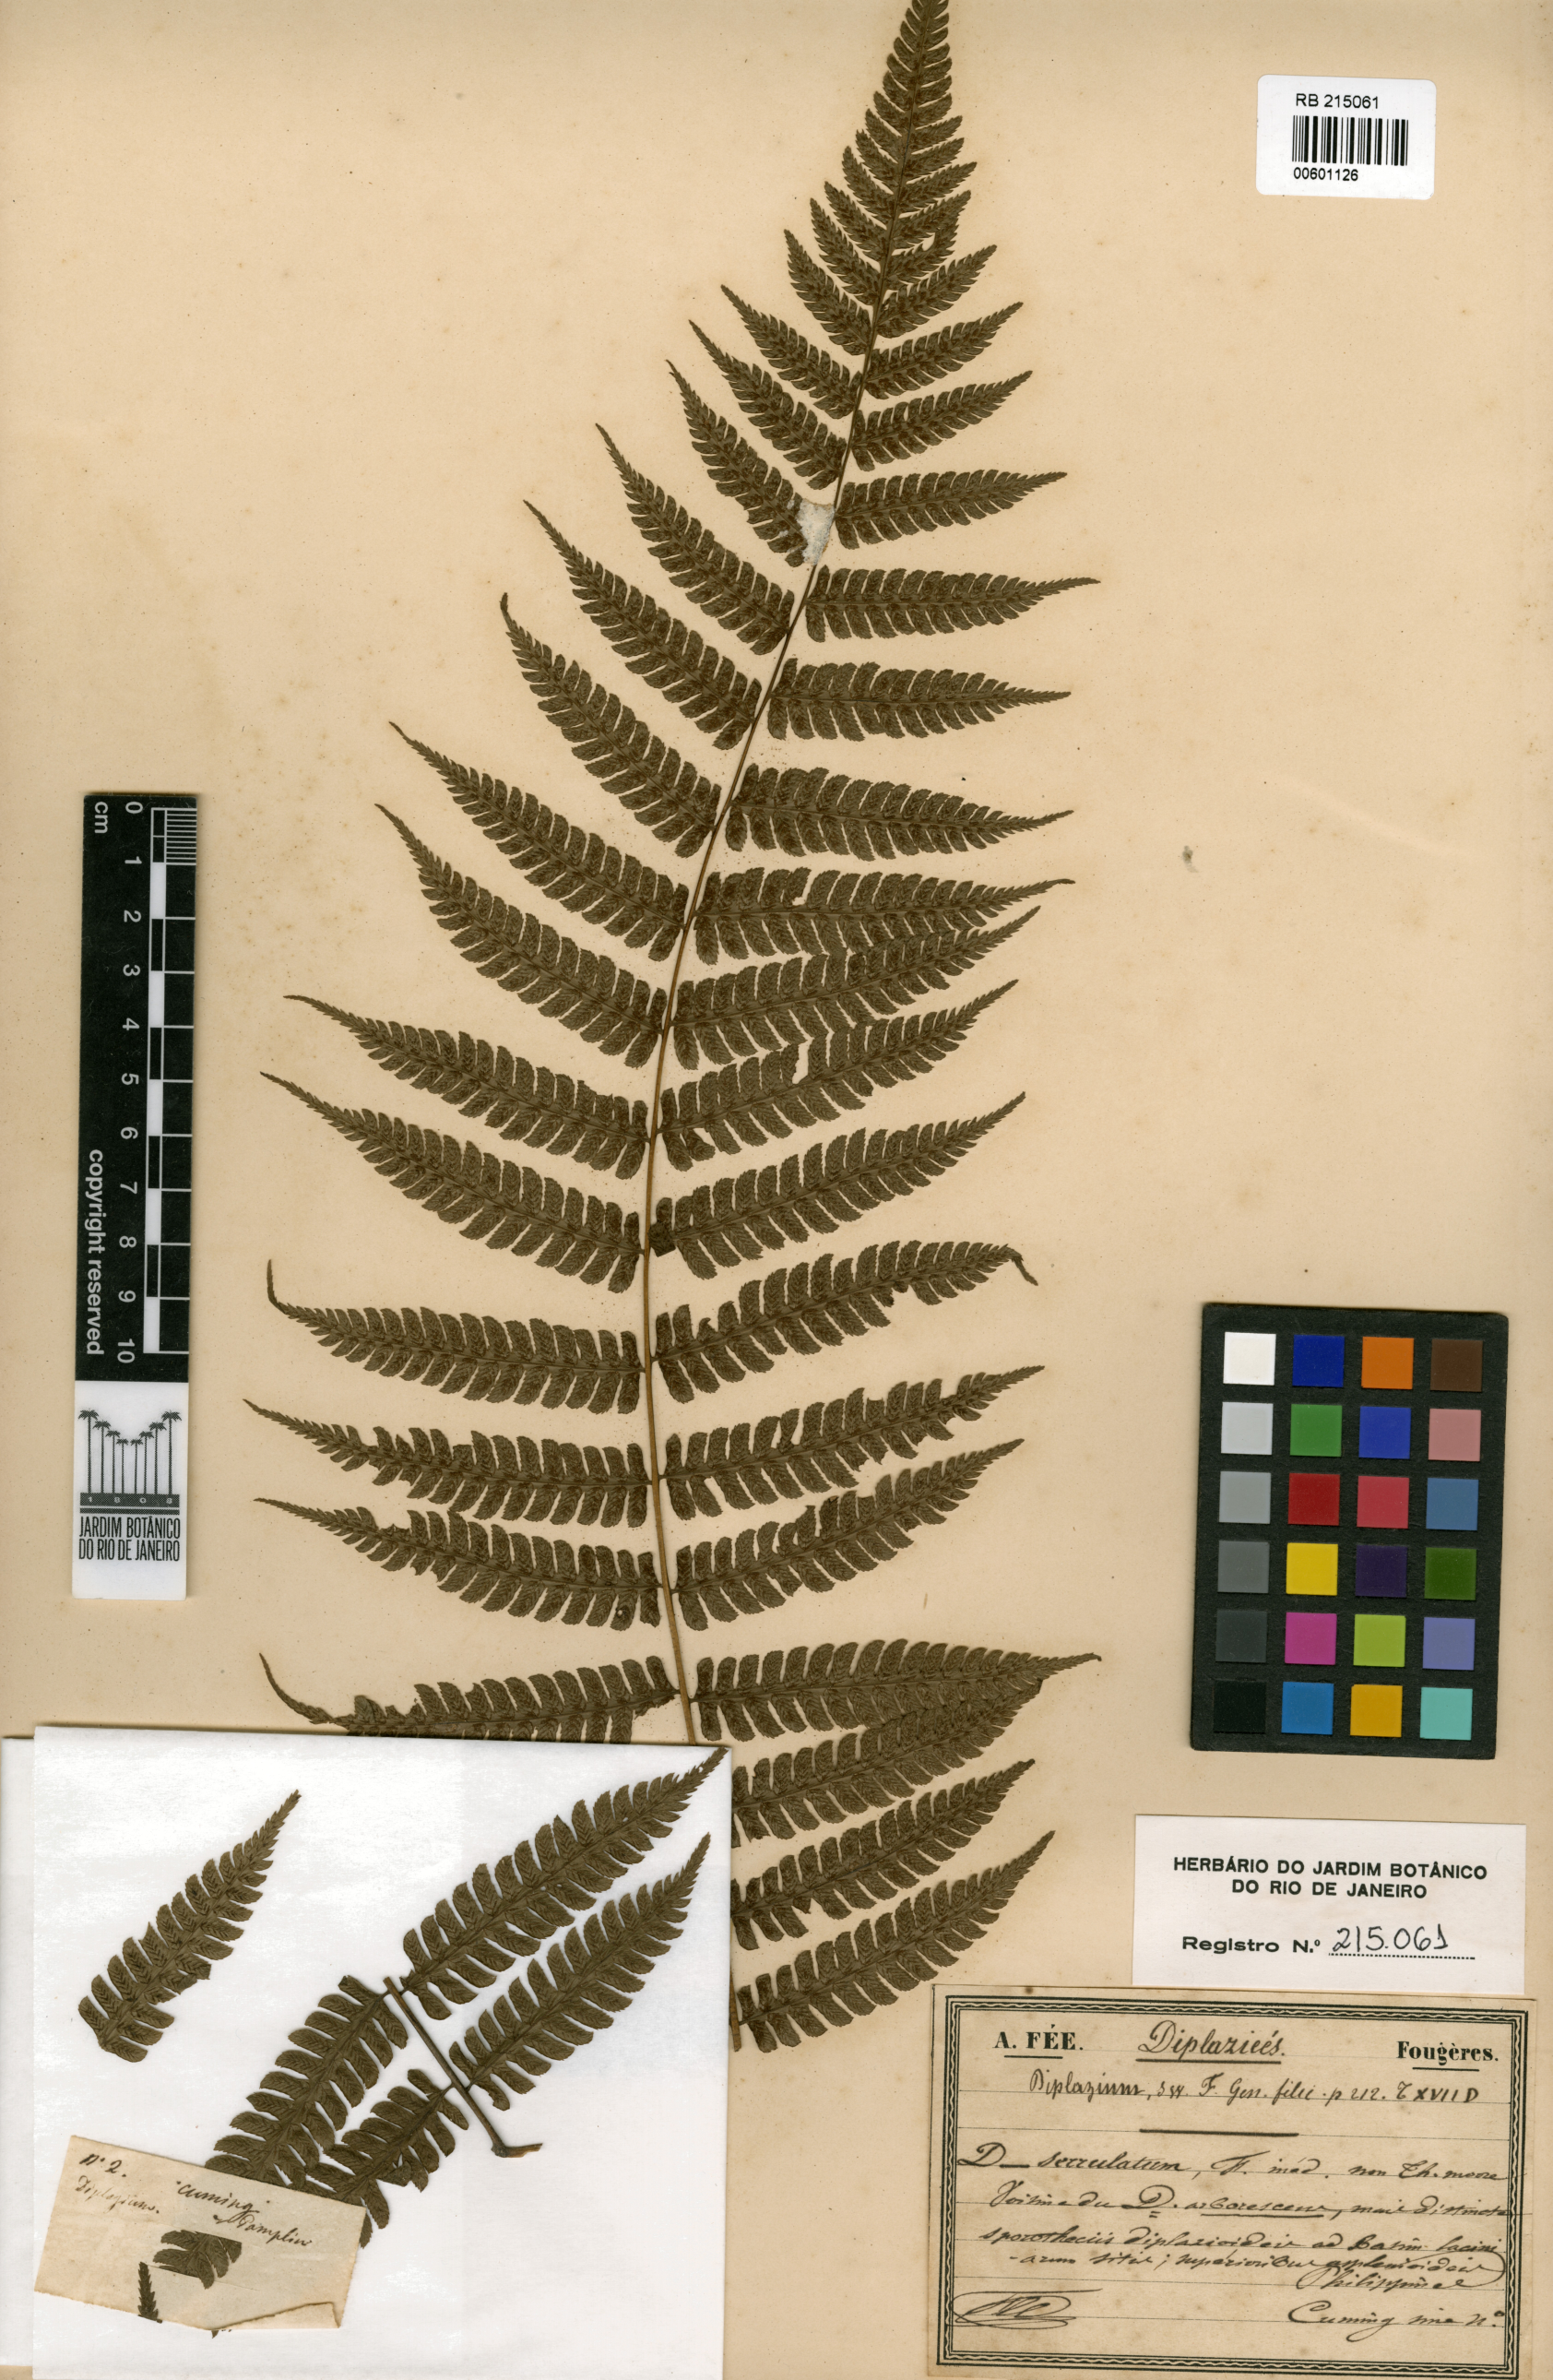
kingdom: Plantae
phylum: Tracheophyta
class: Polypodiopsida
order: Polypodiales
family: Athyriaceae
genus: Diplazium
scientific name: Diplazium arborescens
